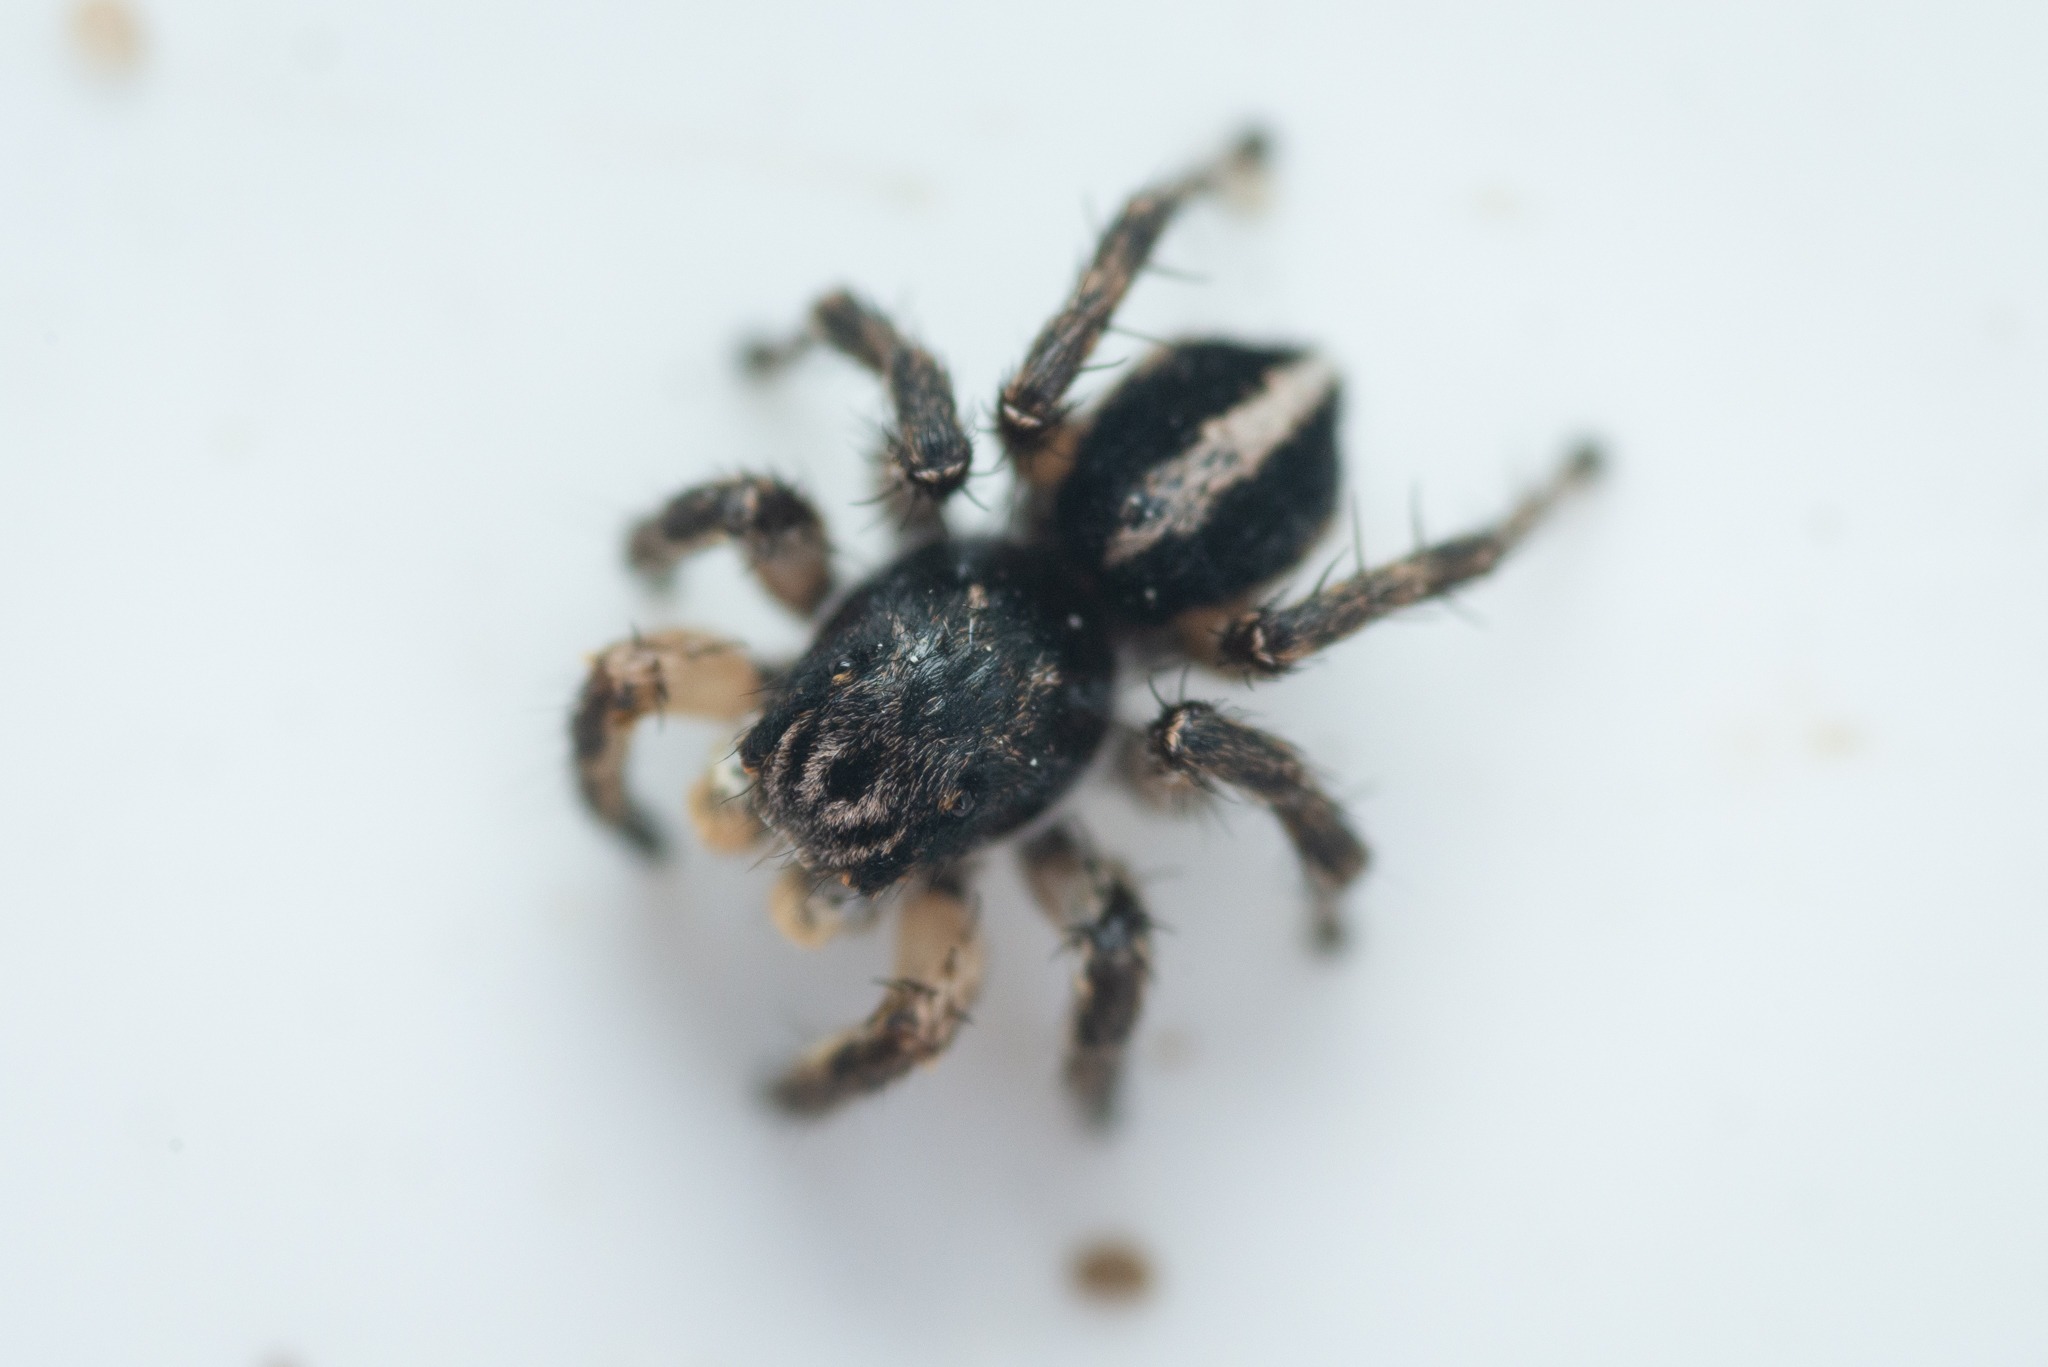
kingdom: Animalia
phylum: Arthropoda
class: Arachnida
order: Araneae
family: Salticidae
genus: Aelurillus
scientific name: Aelurillus v-insignitus
